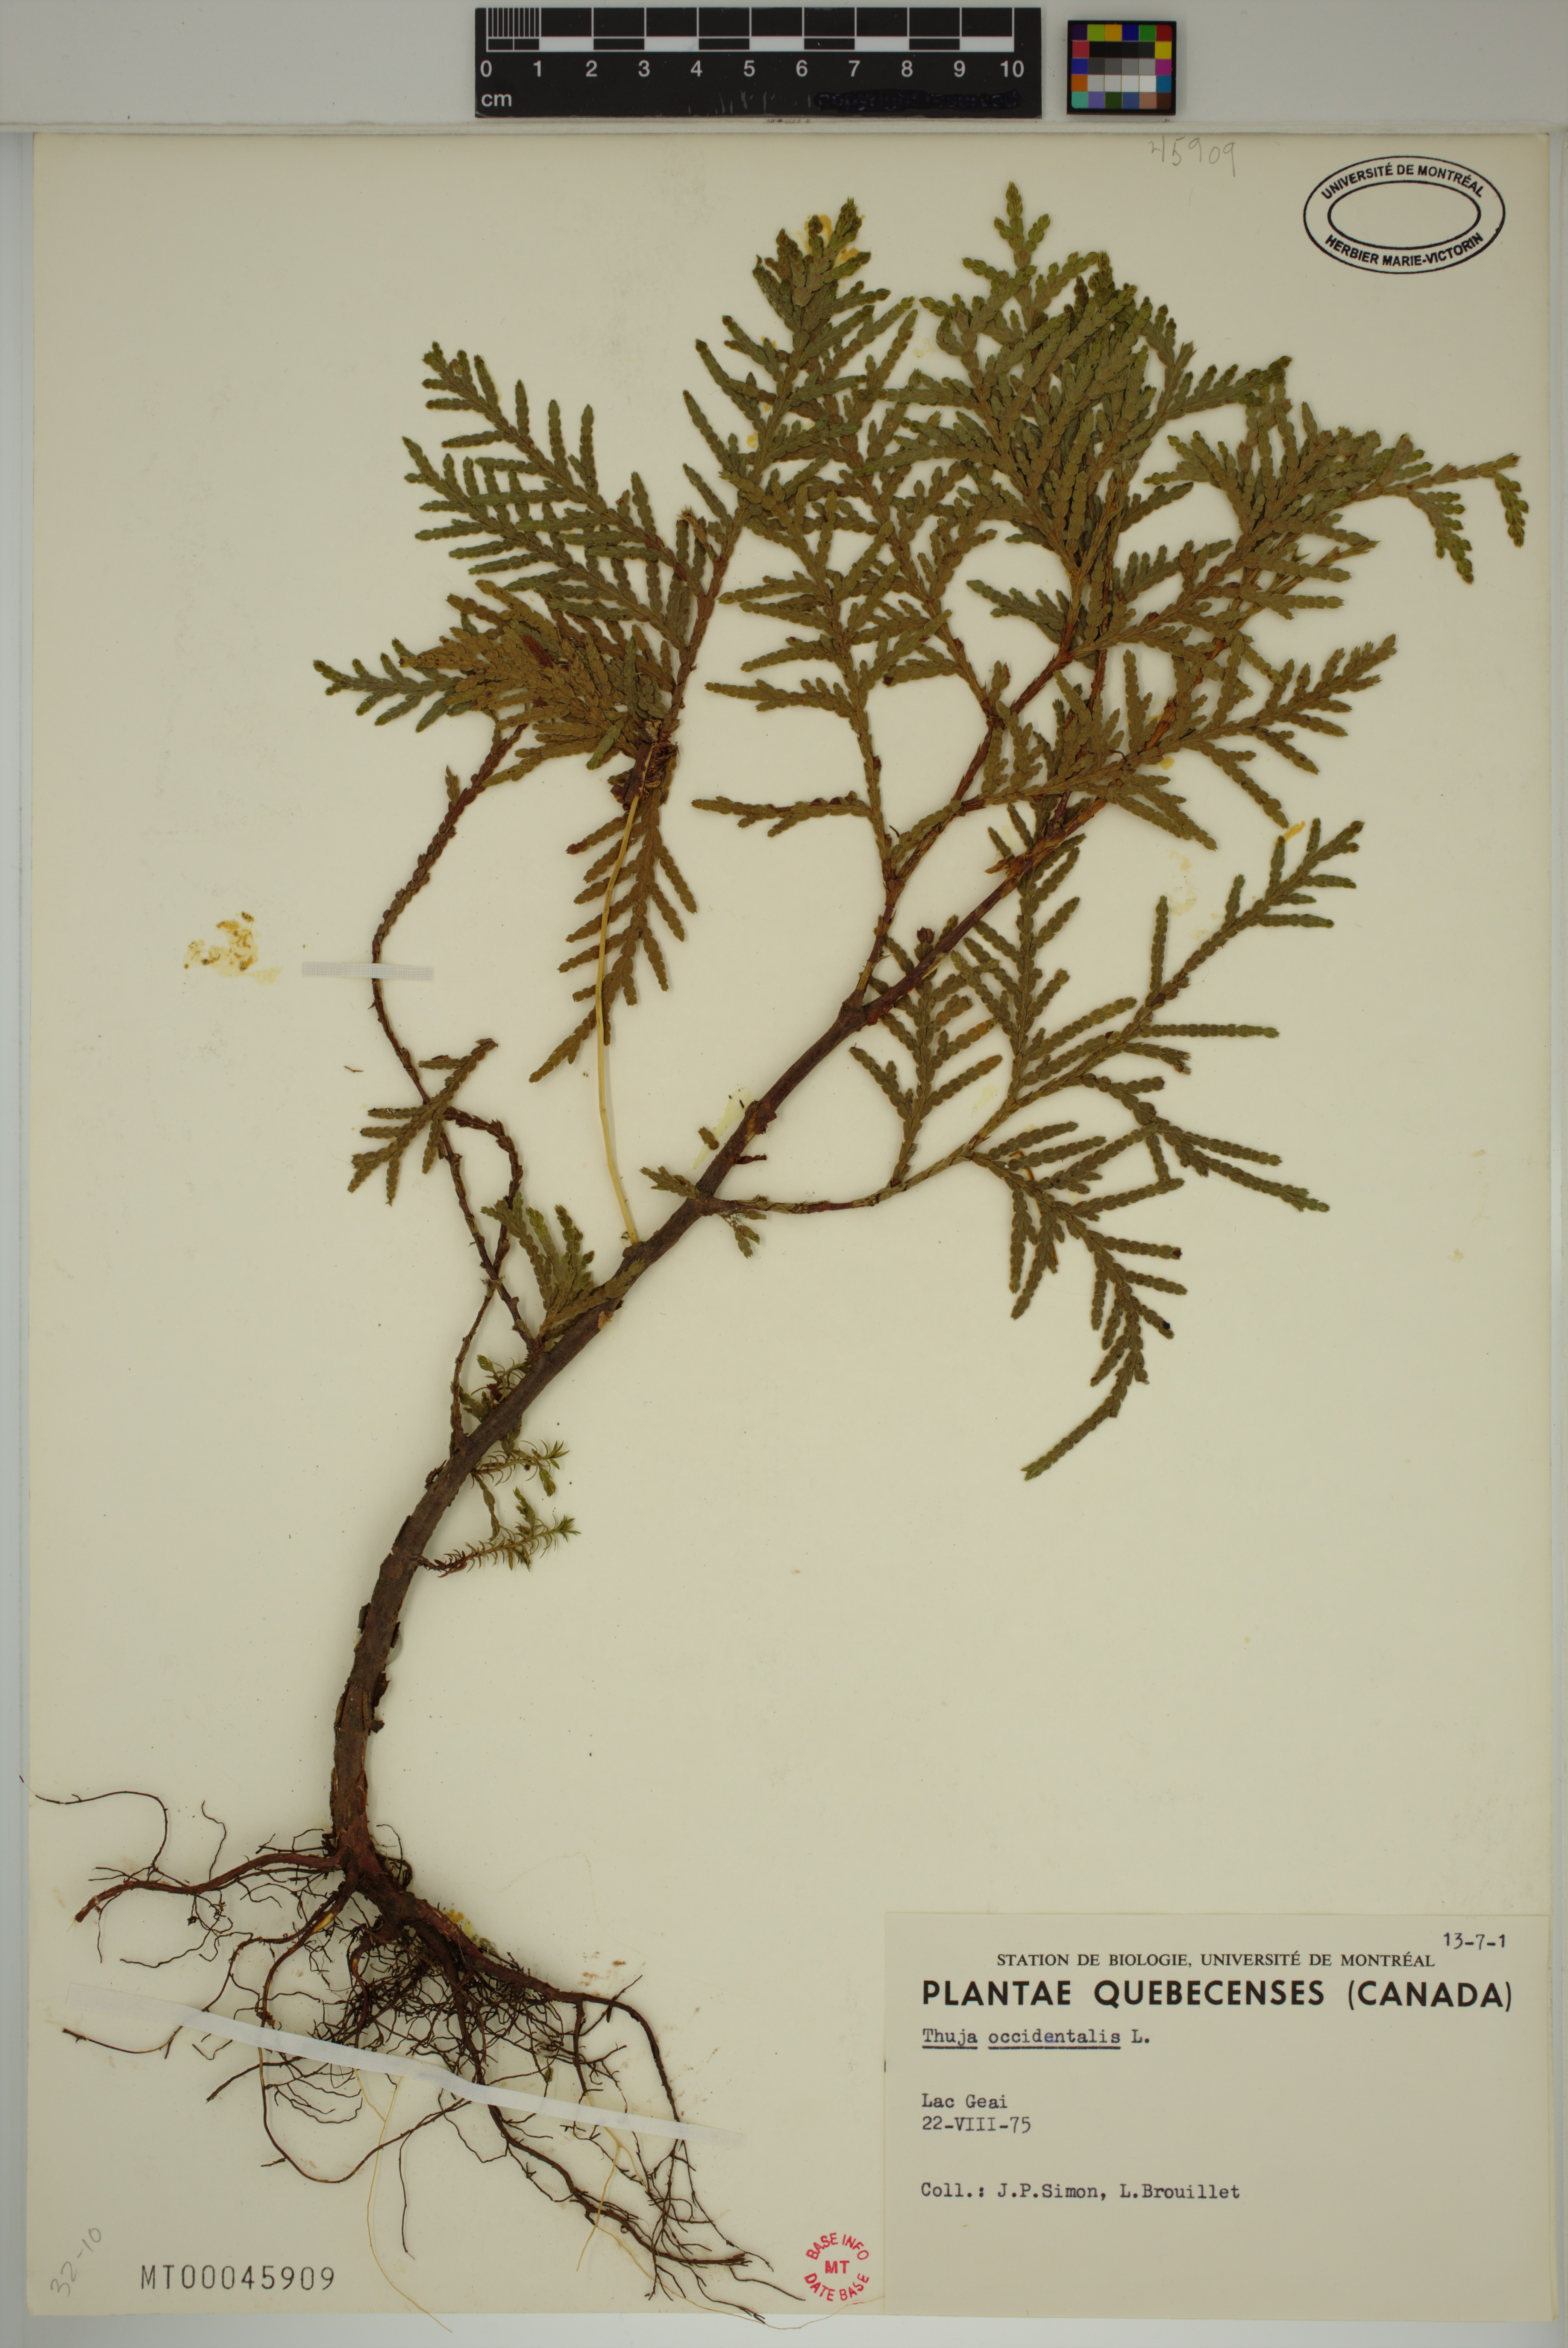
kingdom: Plantae
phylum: Tracheophyta
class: Pinopsida
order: Pinales
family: Cupressaceae
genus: Thuja
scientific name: Thuja occidentalis
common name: Northern white-cedar
